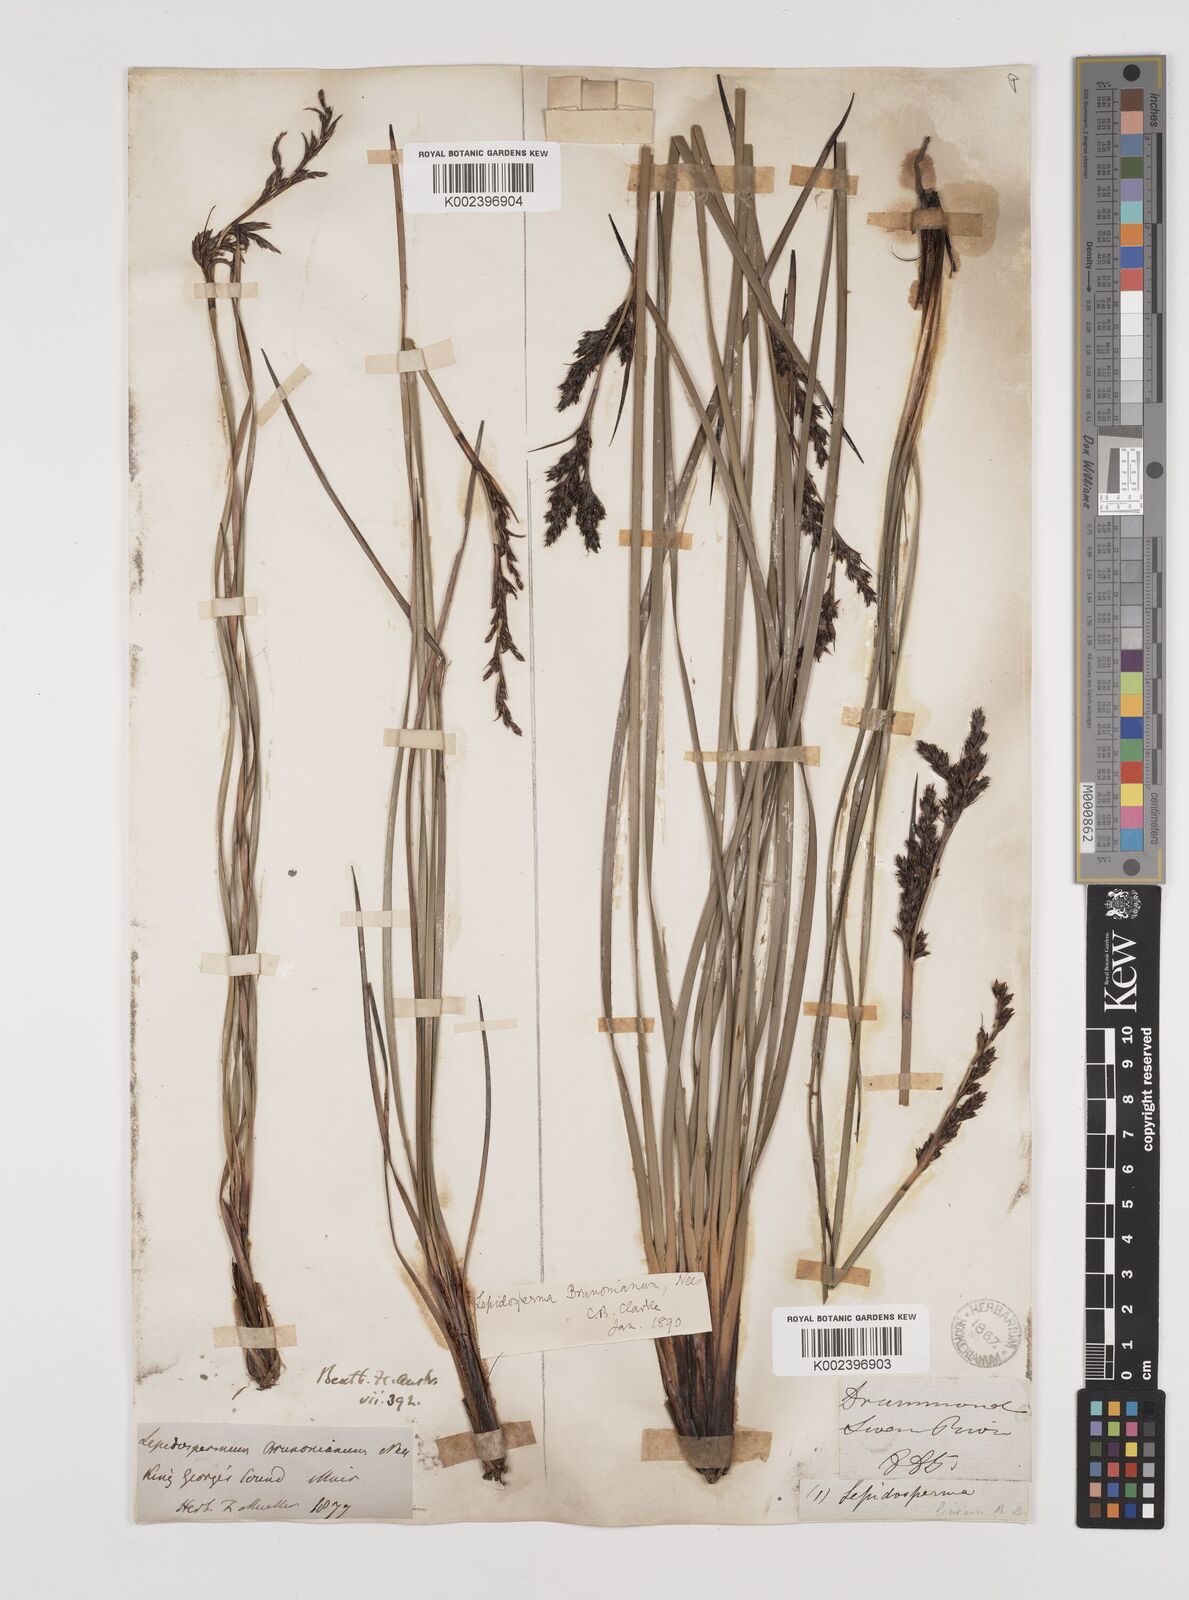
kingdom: Plantae
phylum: Tracheophyta
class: Liliopsida
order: Poales
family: Cyperaceae
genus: Lepidosperma
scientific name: Lepidosperma sieberi
